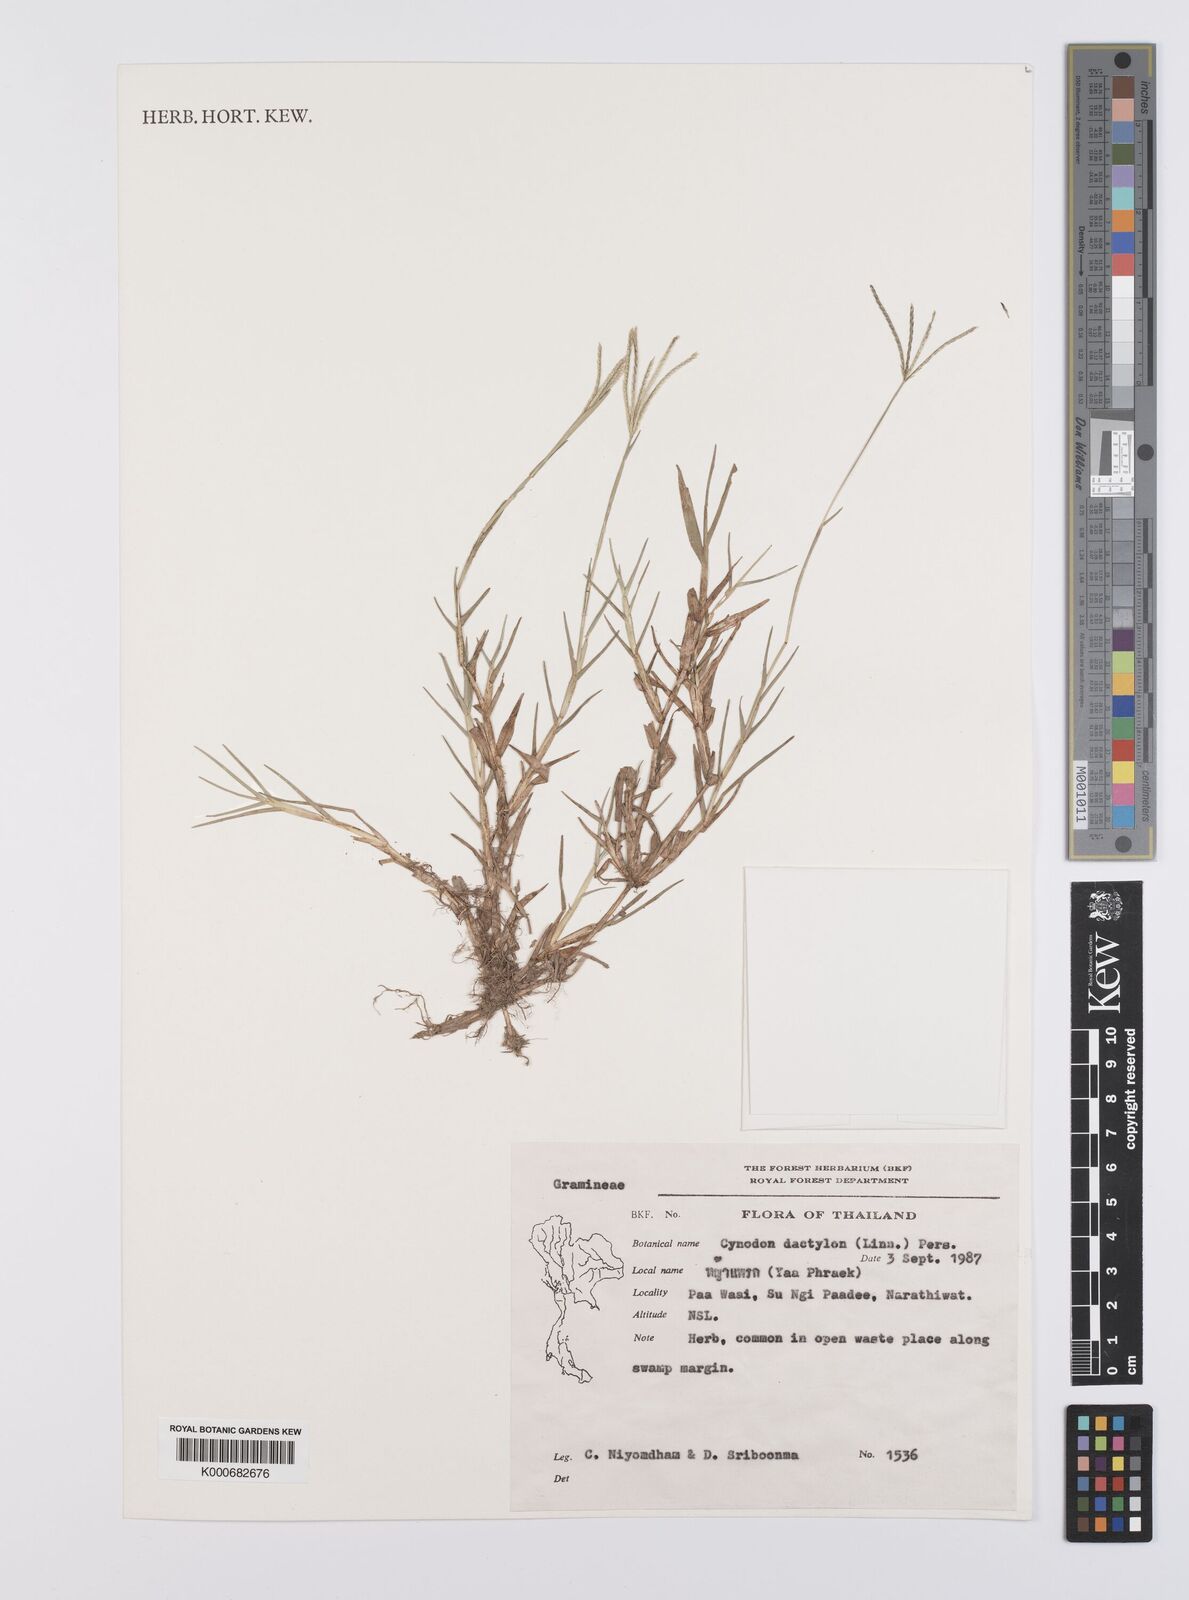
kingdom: Plantae
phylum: Tracheophyta
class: Liliopsida
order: Poales
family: Poaceae
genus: Cynodon
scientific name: Cynodon dactylon
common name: Bermuda grass
